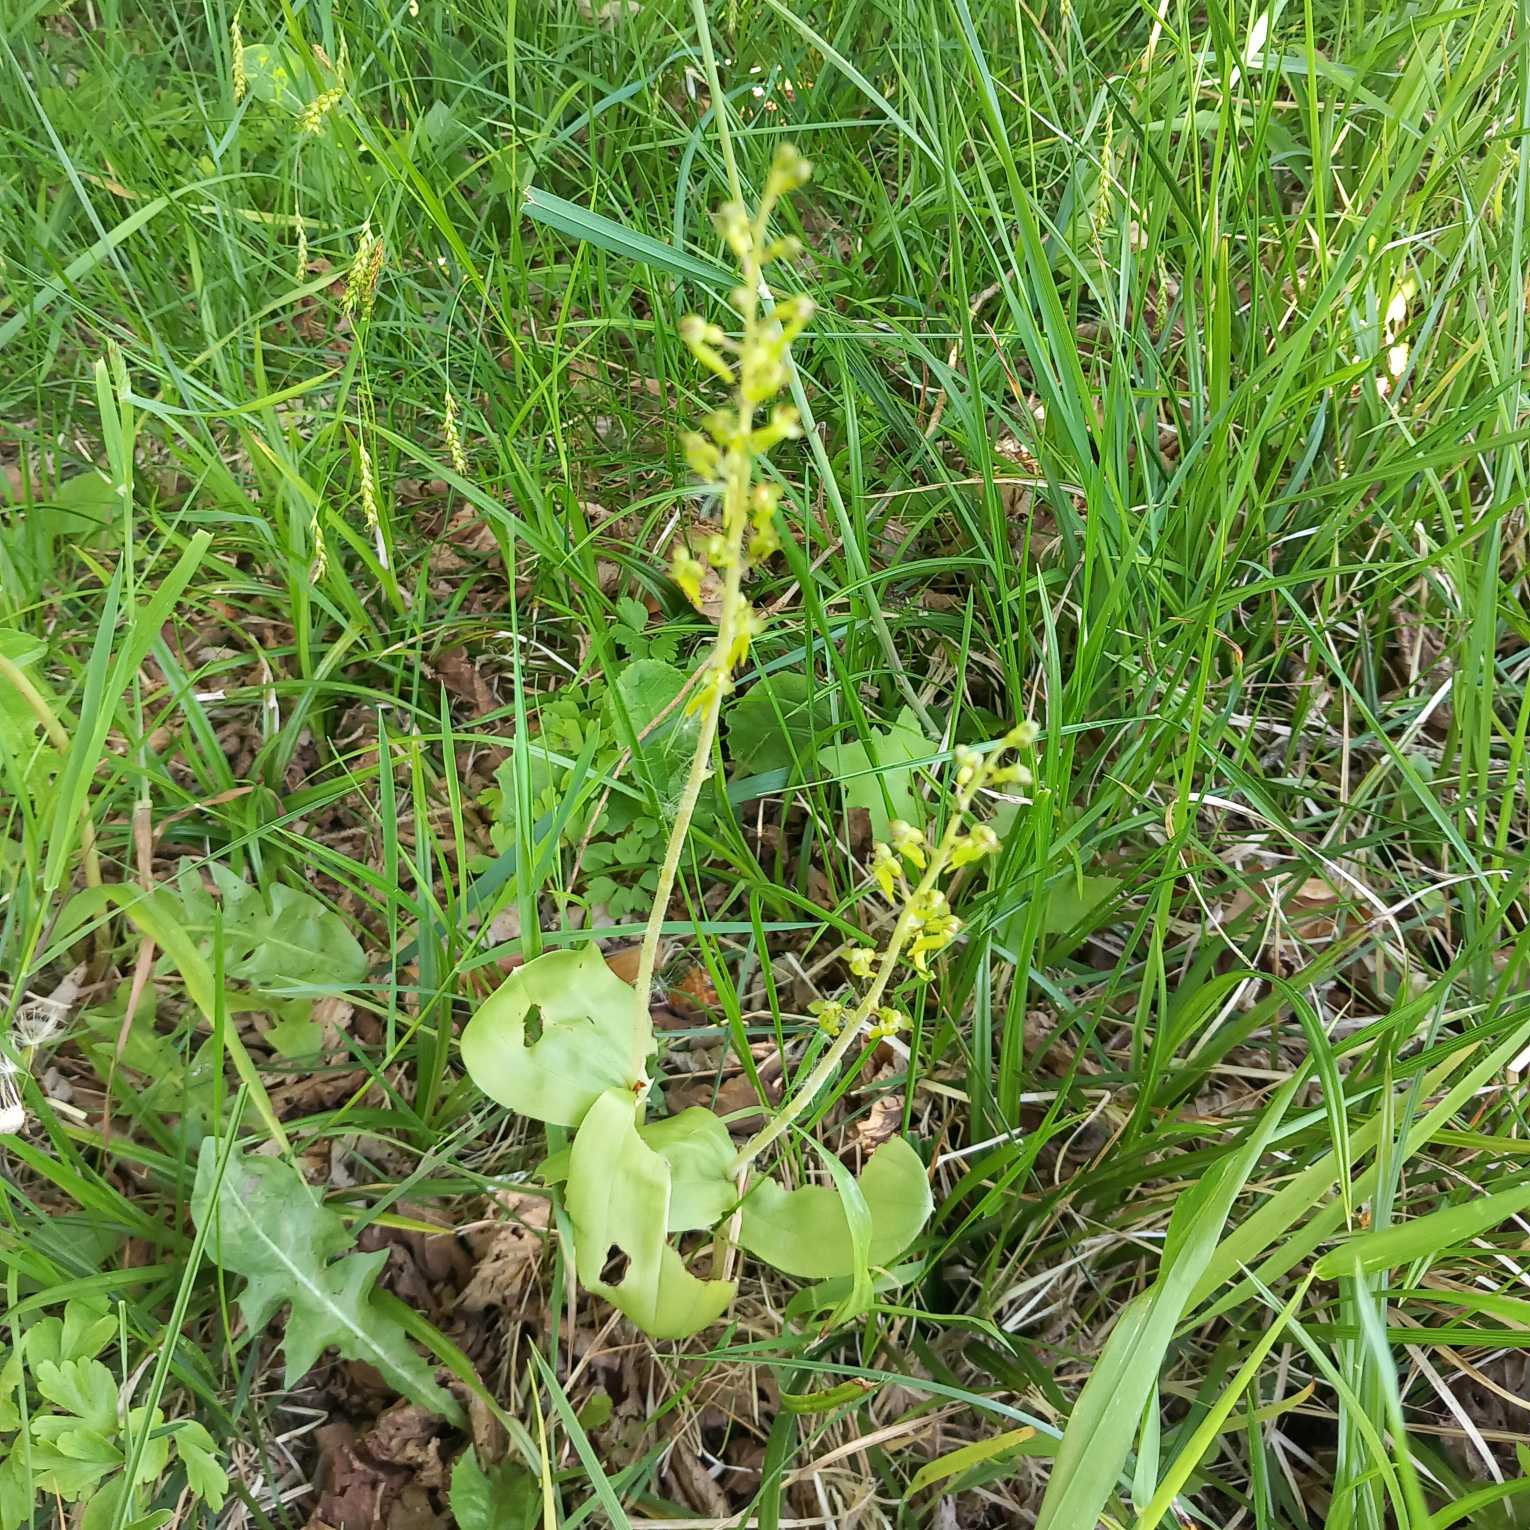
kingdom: Plantae
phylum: Tracheophyta
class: Liliopsida
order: Asparagales
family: Orchidaceae
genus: Neottia
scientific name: Neottia ovata
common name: Ægbladet fliglæbe
